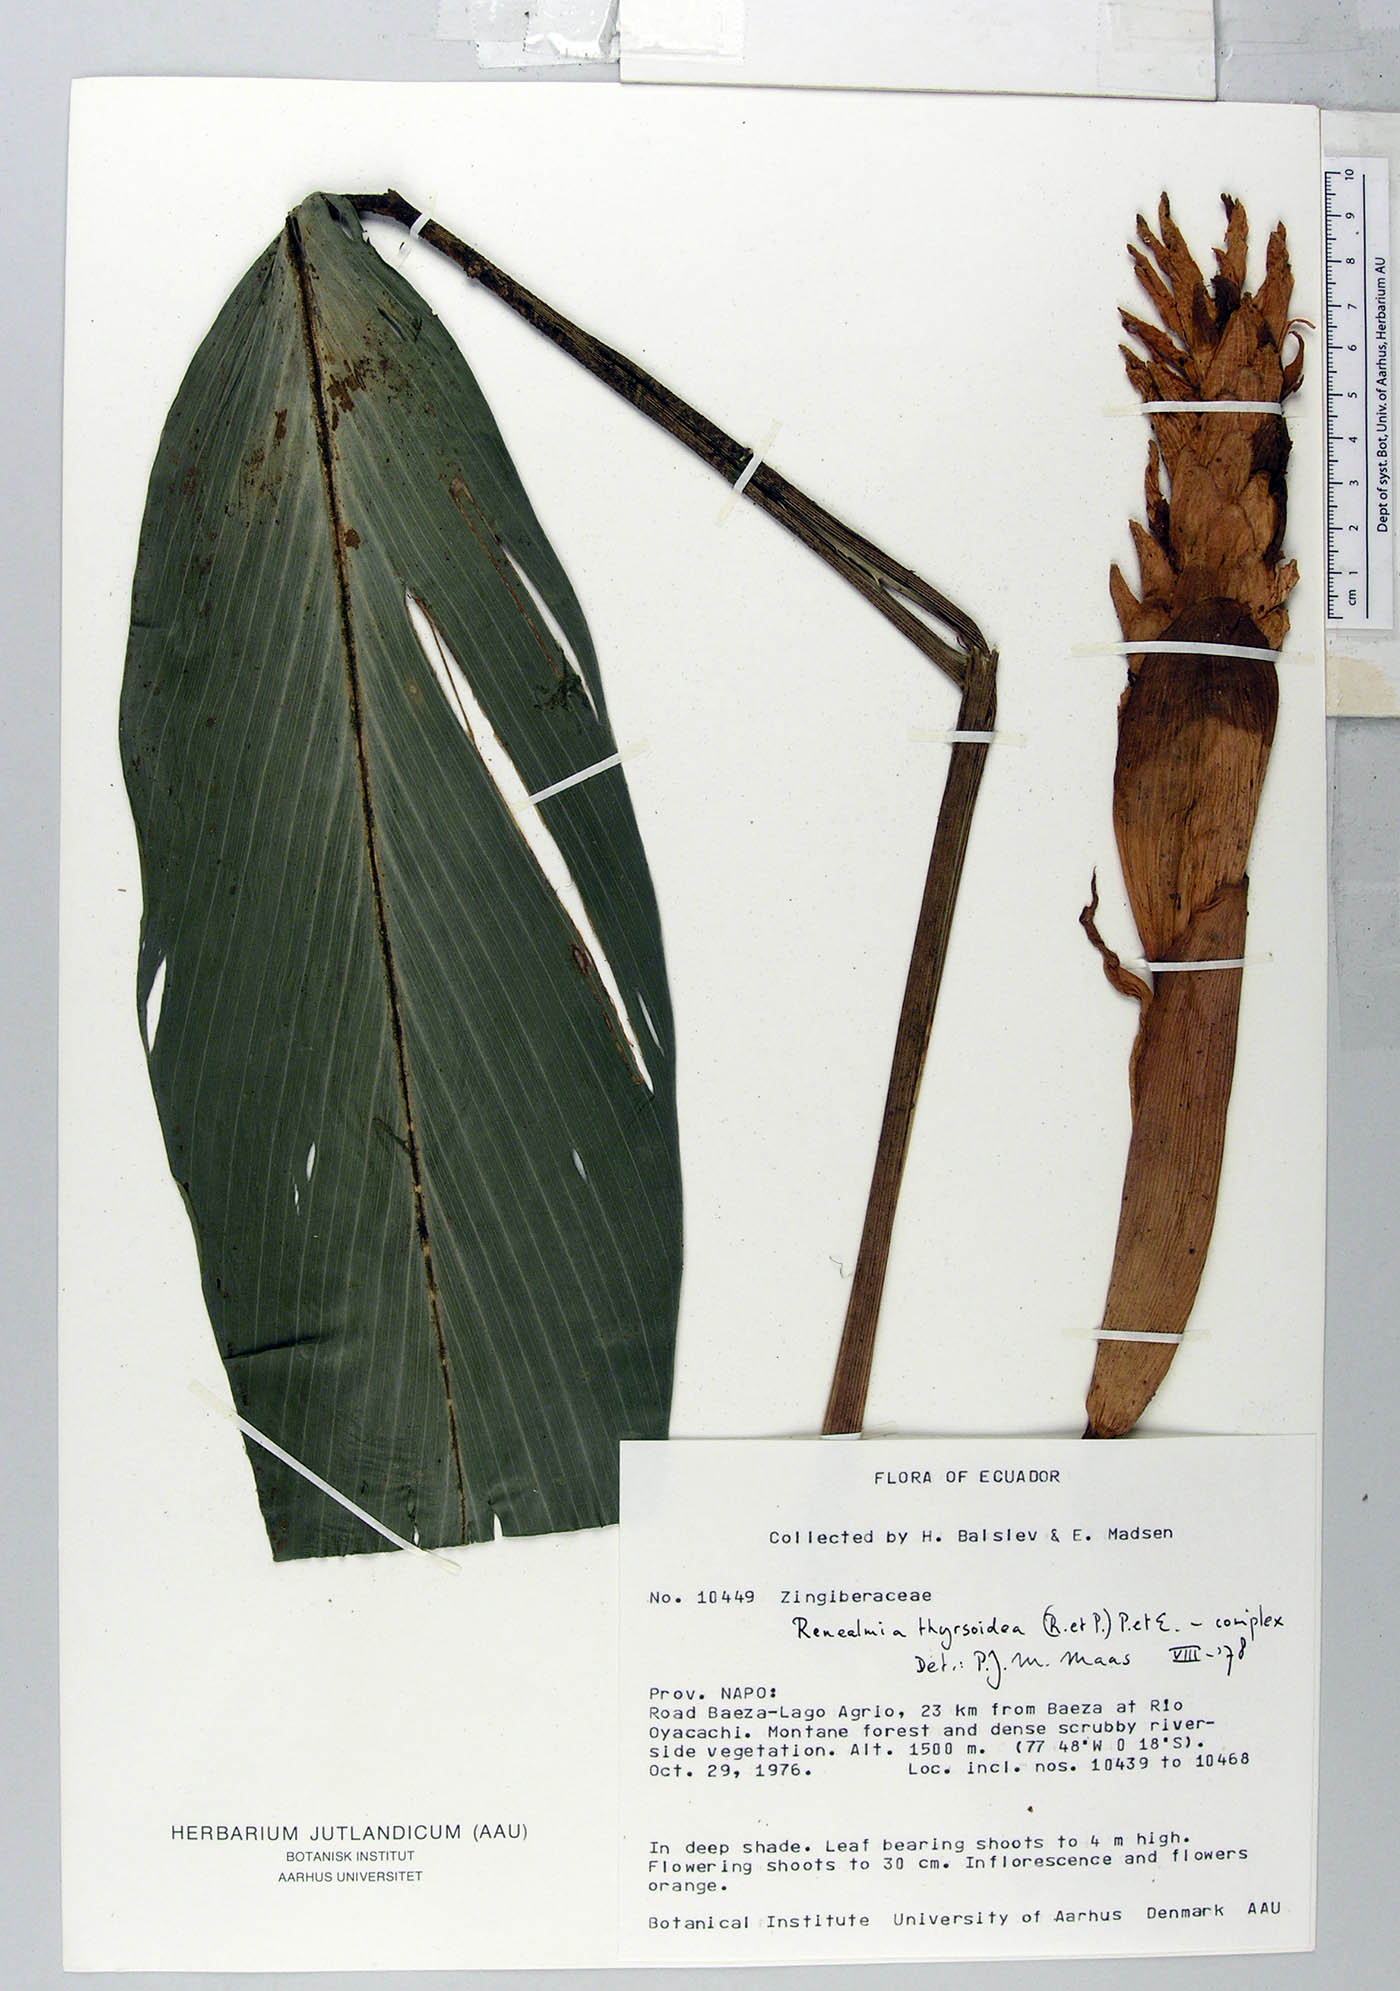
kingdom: Plantae
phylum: Tracheophyta
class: Liliopsida
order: Zingiberales
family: Zingiberaceae
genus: Renealmia
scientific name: Renealmia thyrsoidea
